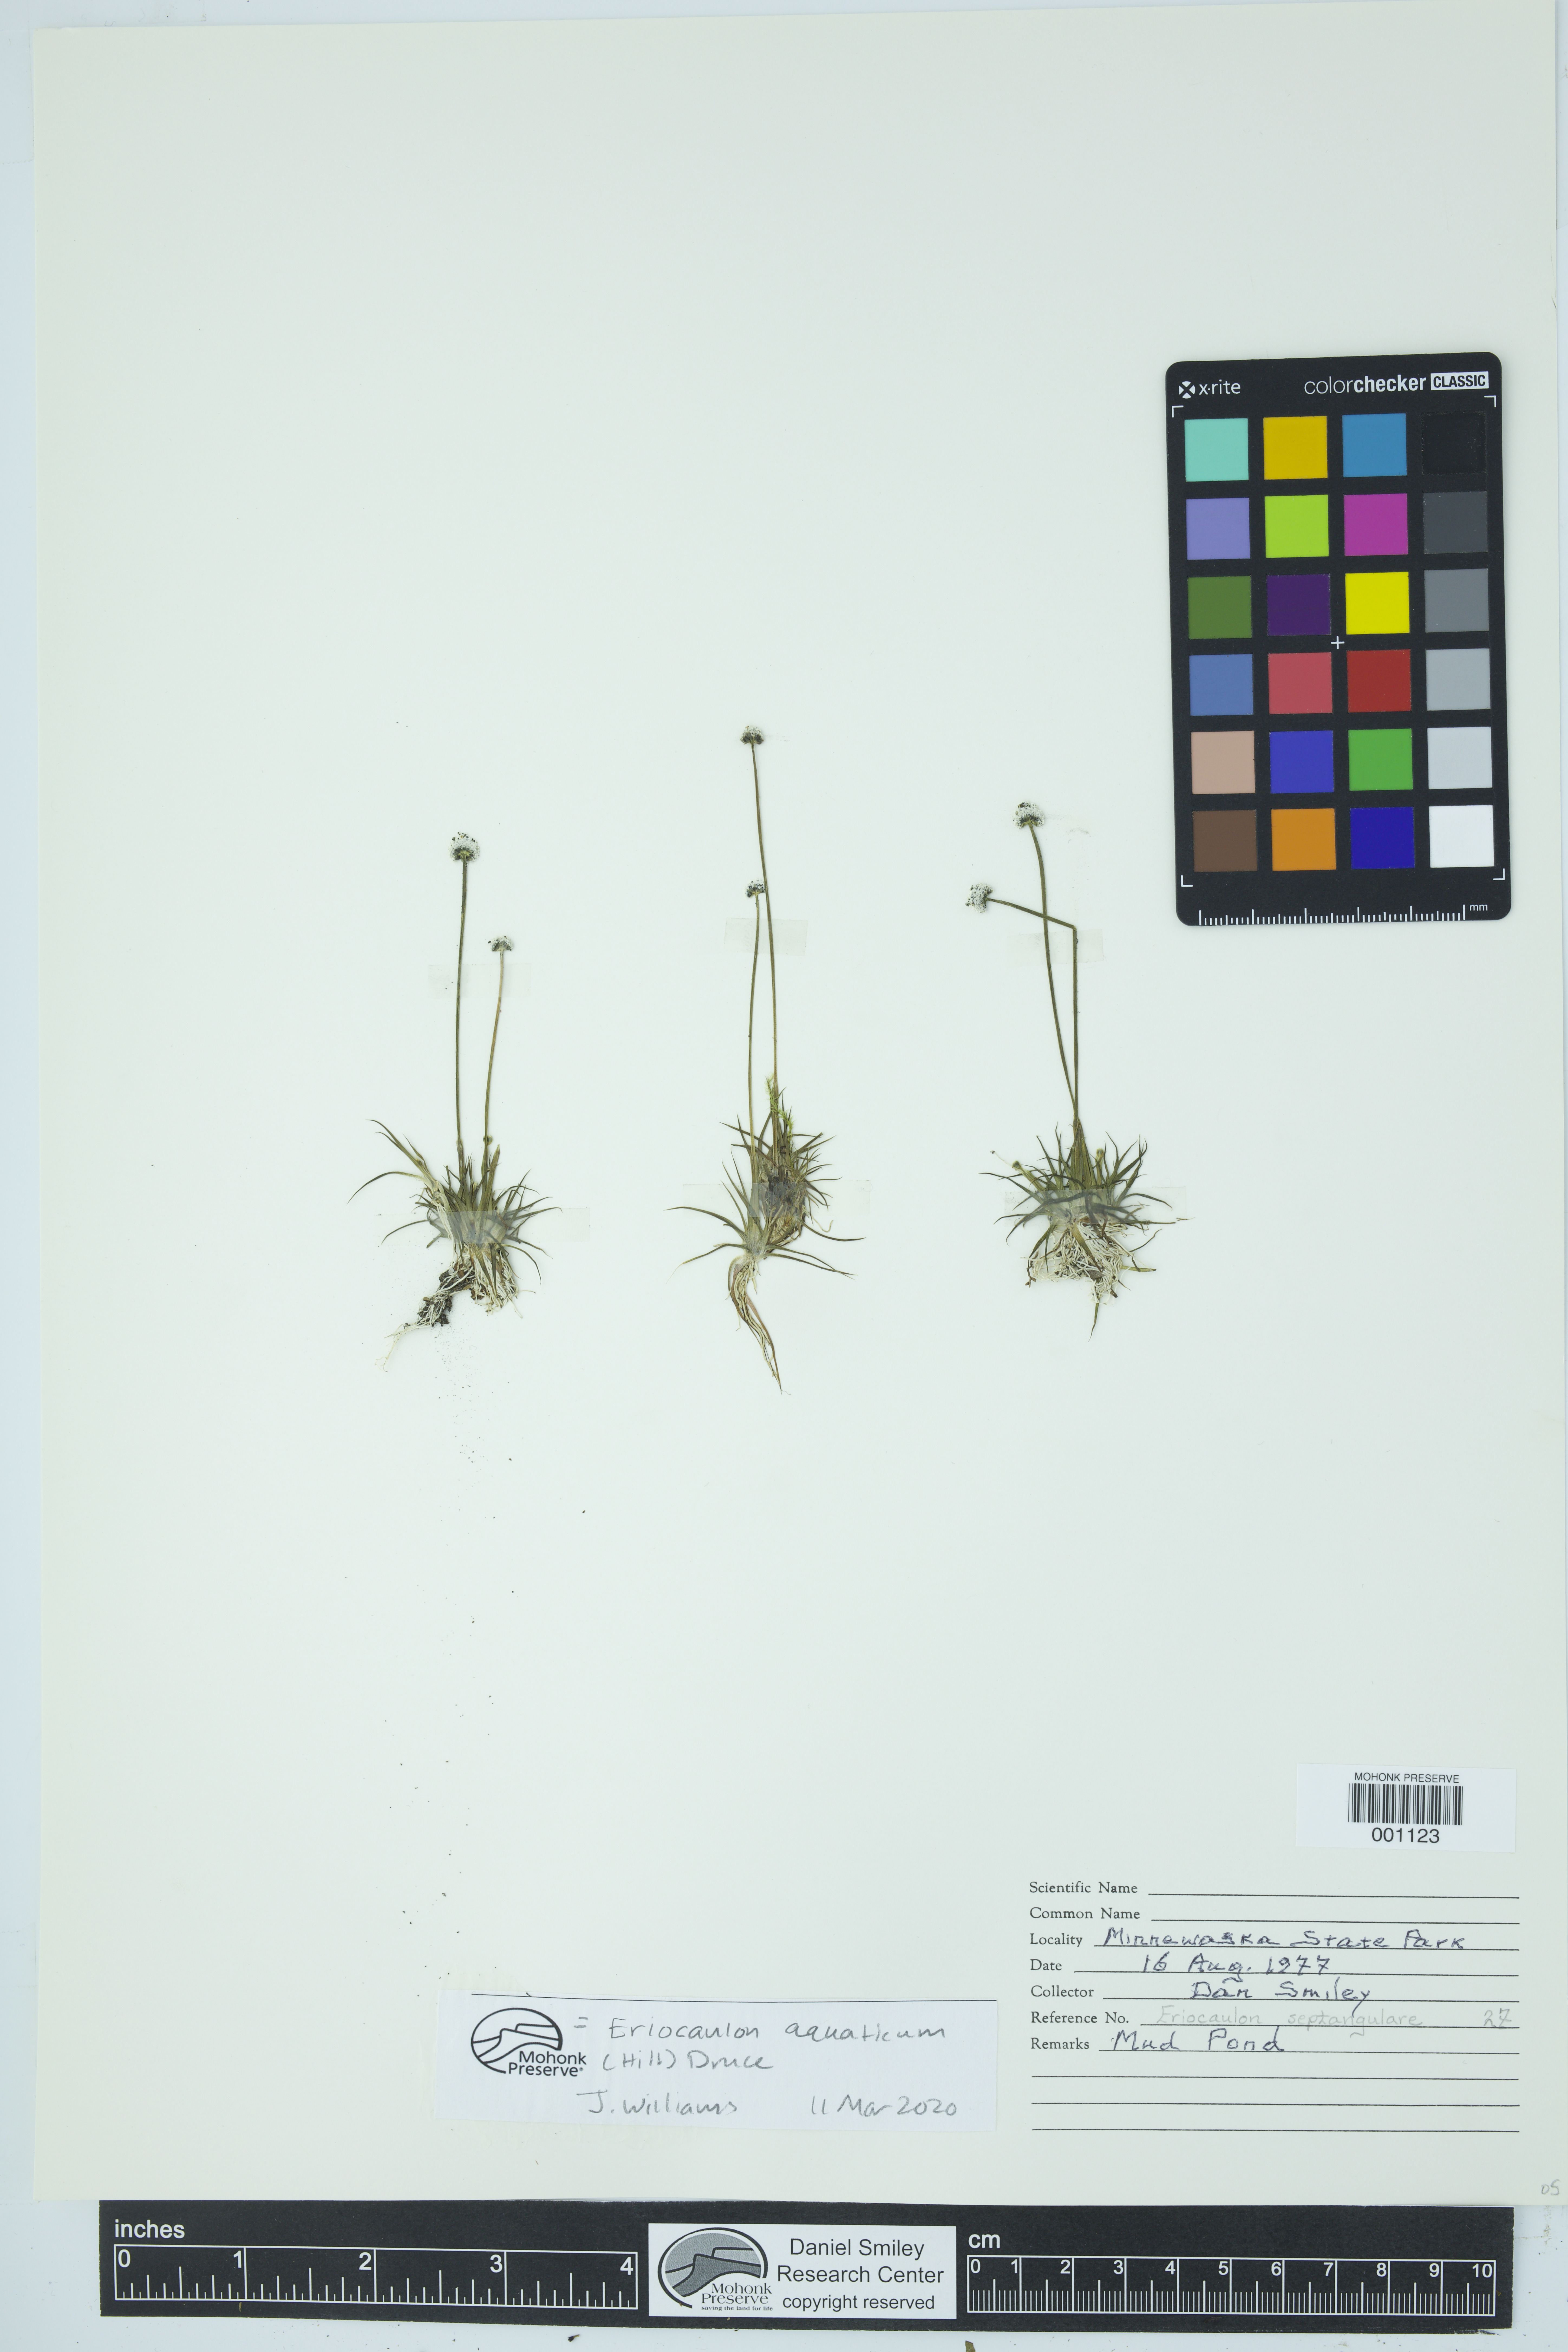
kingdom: Plantae
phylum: Tracheophyta
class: Liliopsida
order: Poales
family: Eriocaulaceae
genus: Eriocaulon
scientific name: Eriocaulon aquaticum
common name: Pipewort
